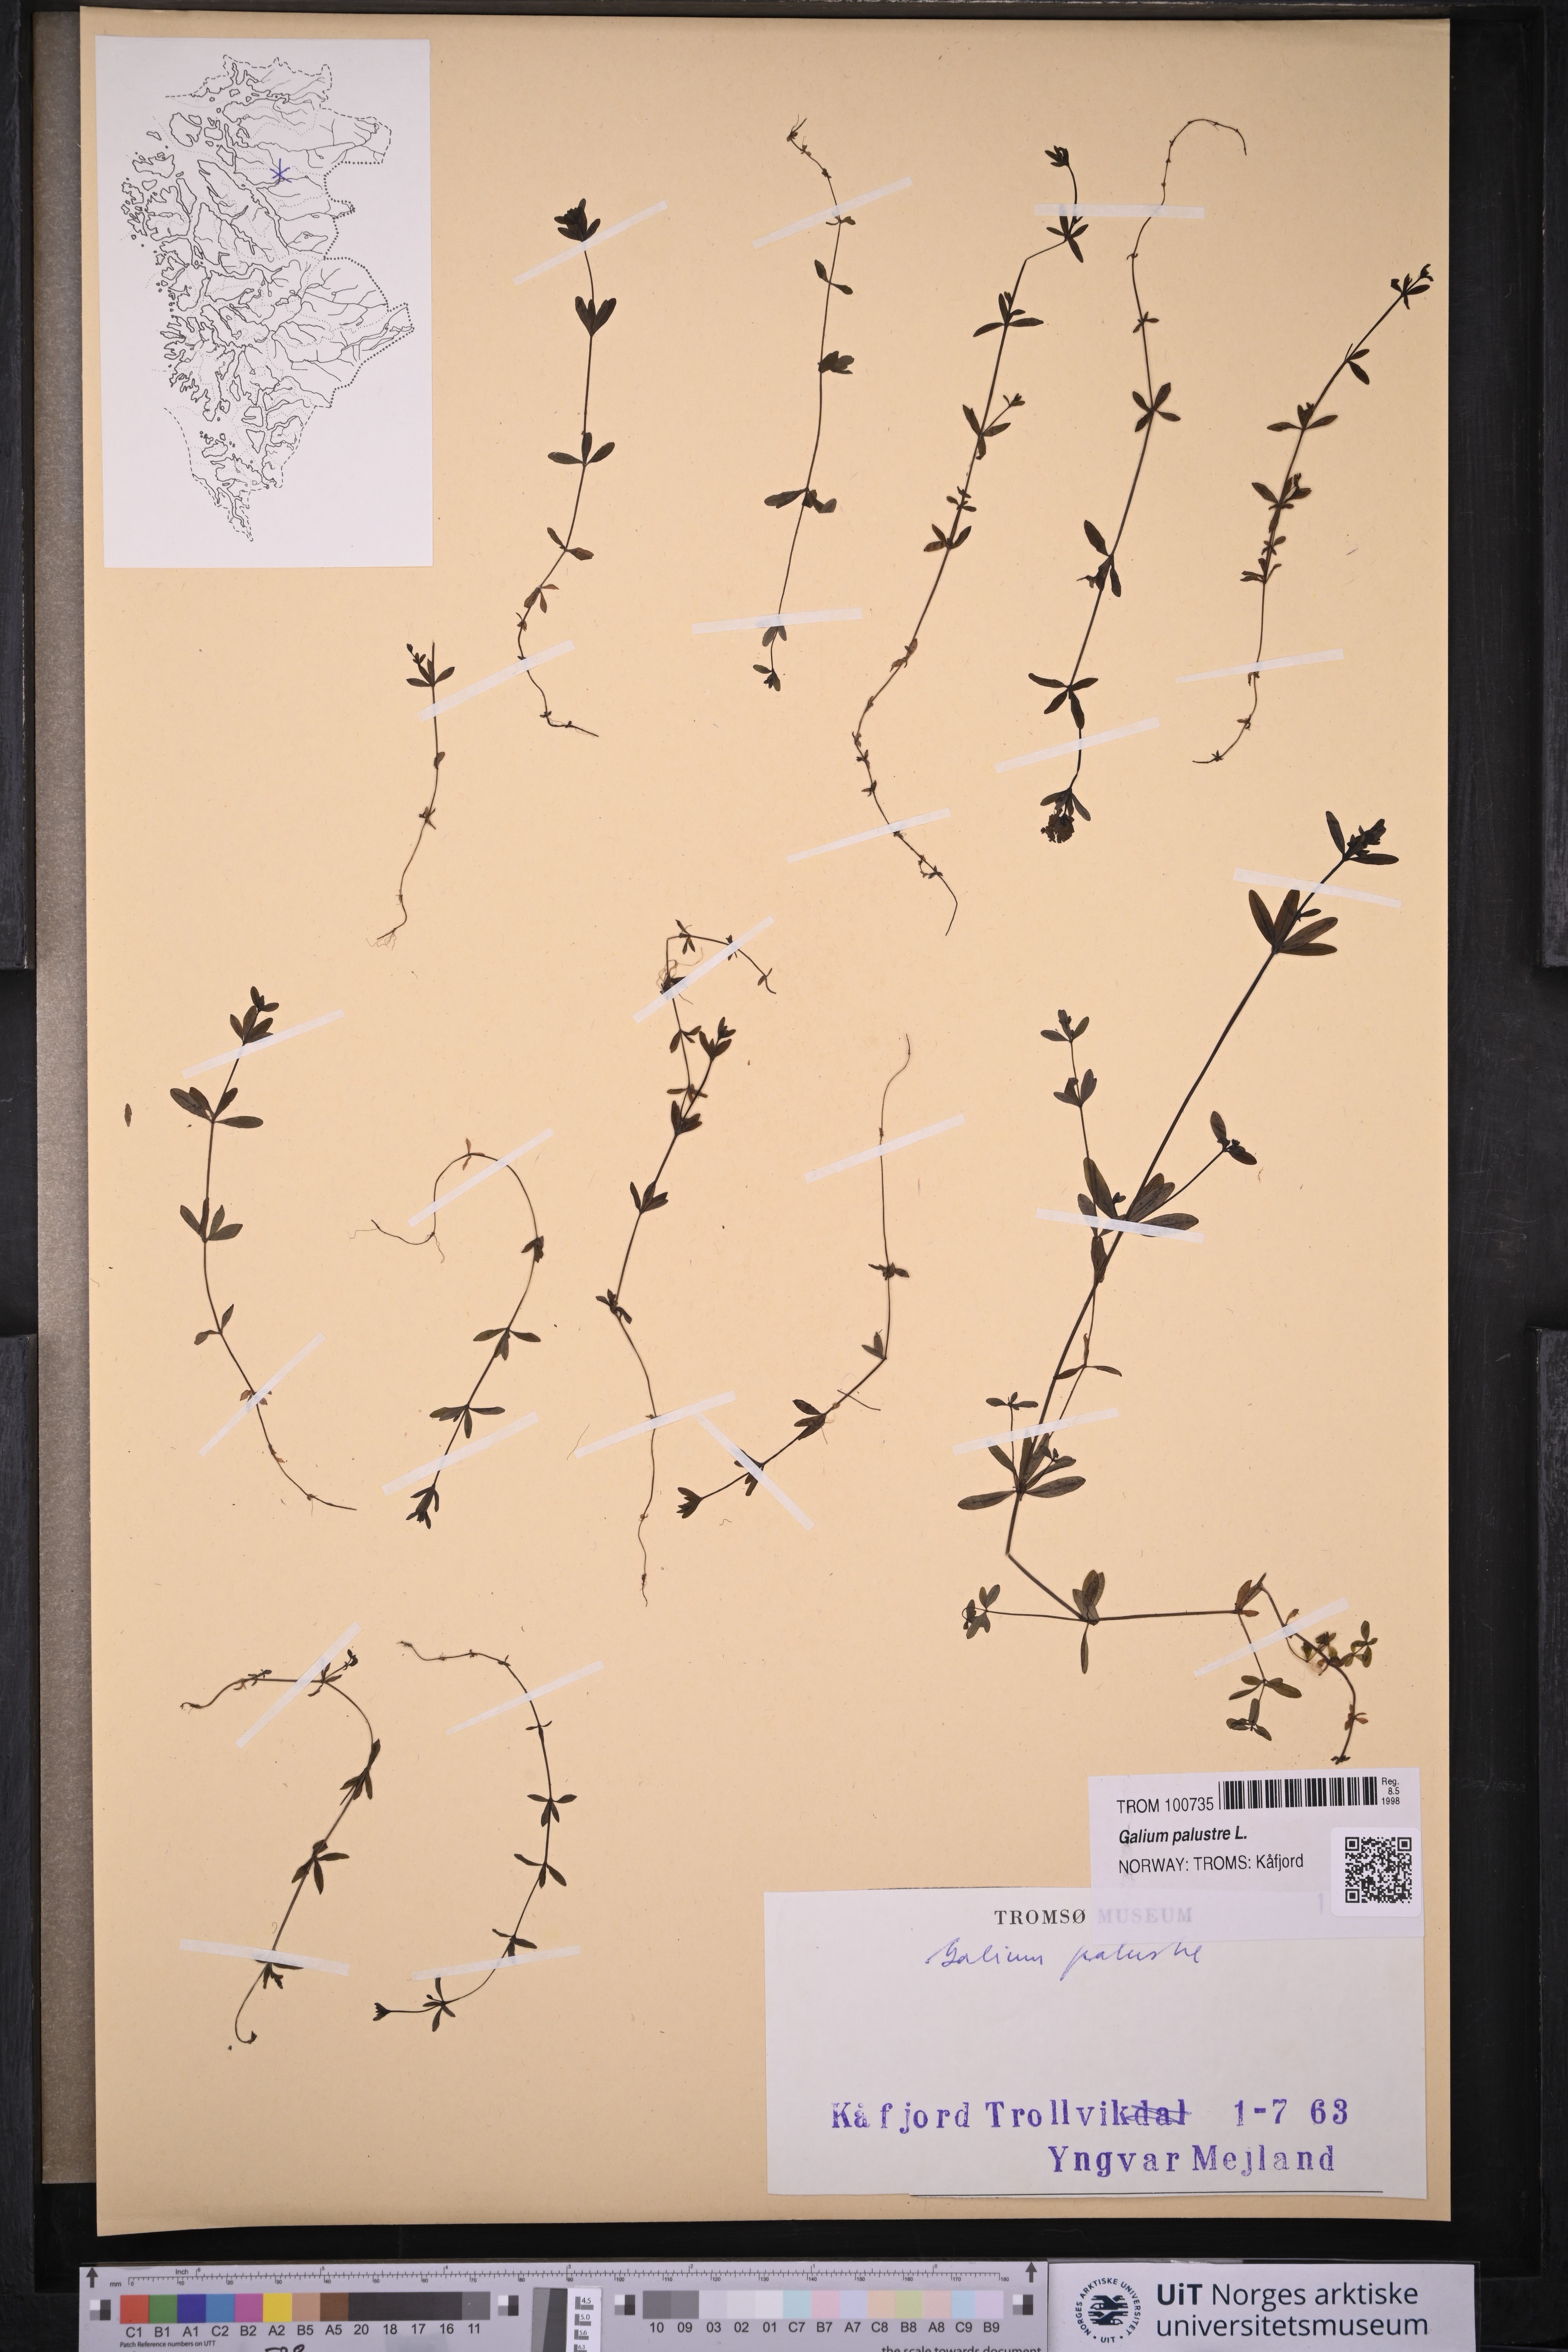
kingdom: Plantae
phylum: Tracheophyta
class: Magnoliopsida
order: Gentianales
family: Rubiaceae
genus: Galium
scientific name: Galium palustre
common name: Common marsh-bedstraw
